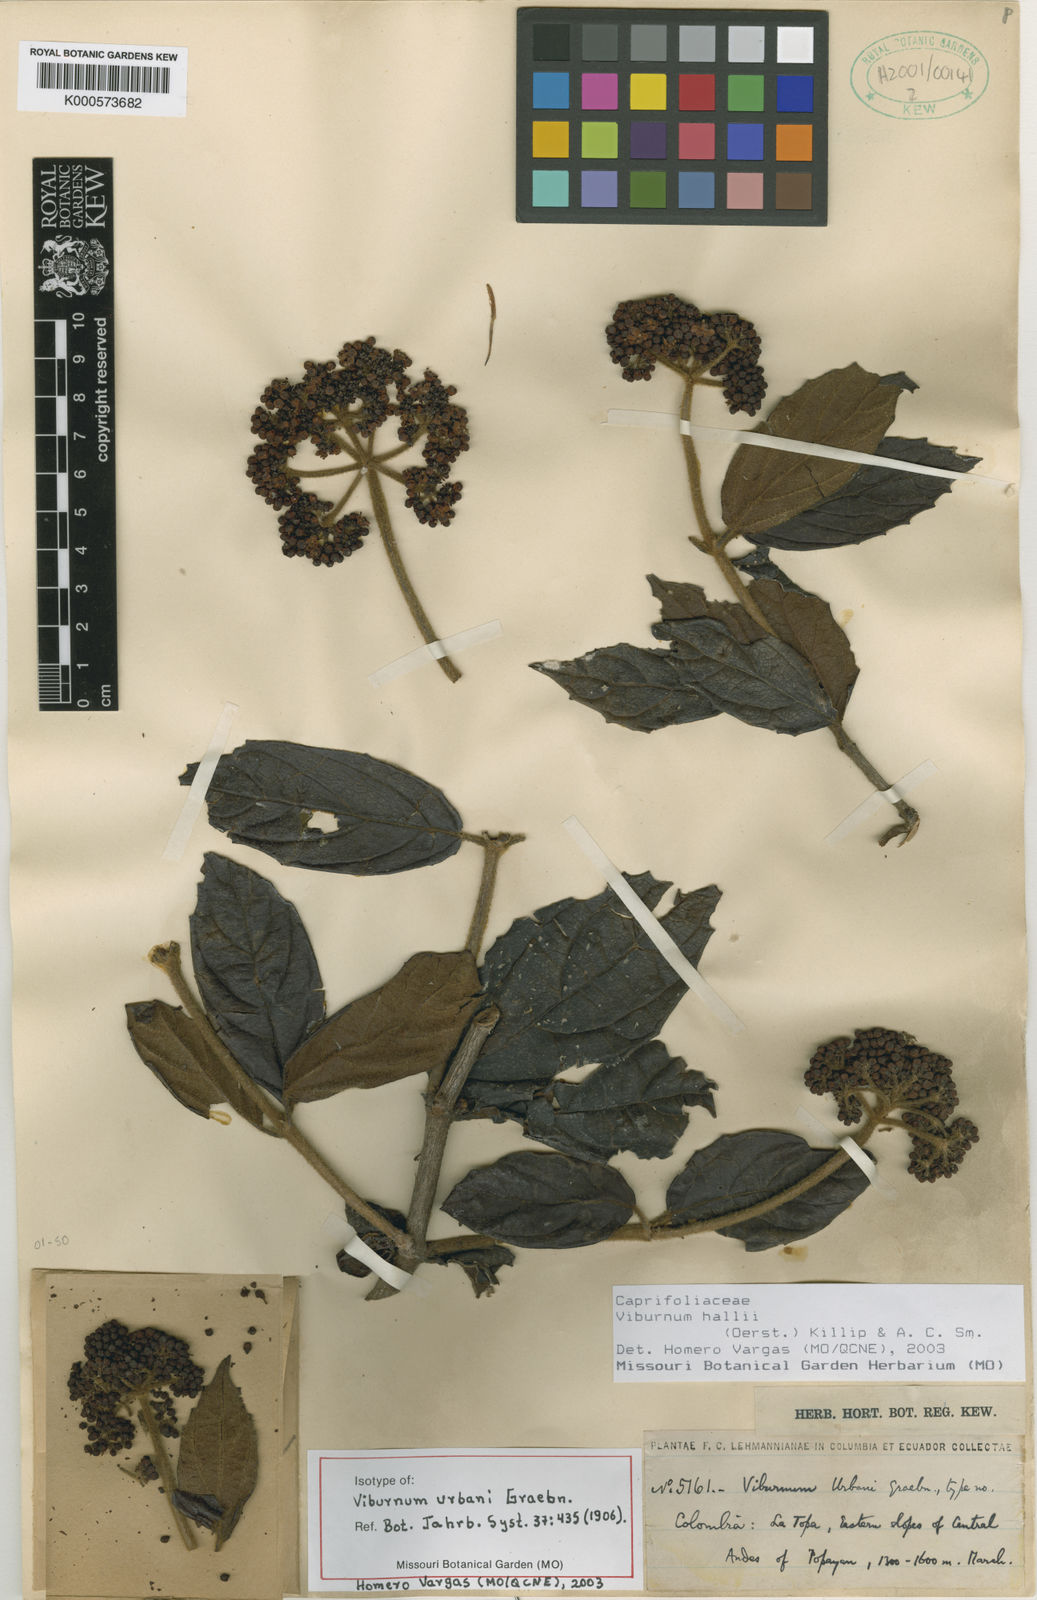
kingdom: Plantae
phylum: Tracheophyta
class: Magnoliopsida
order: Dipsacales
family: Viburnaceae
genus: Viburnum
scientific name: Viburnum hallii
